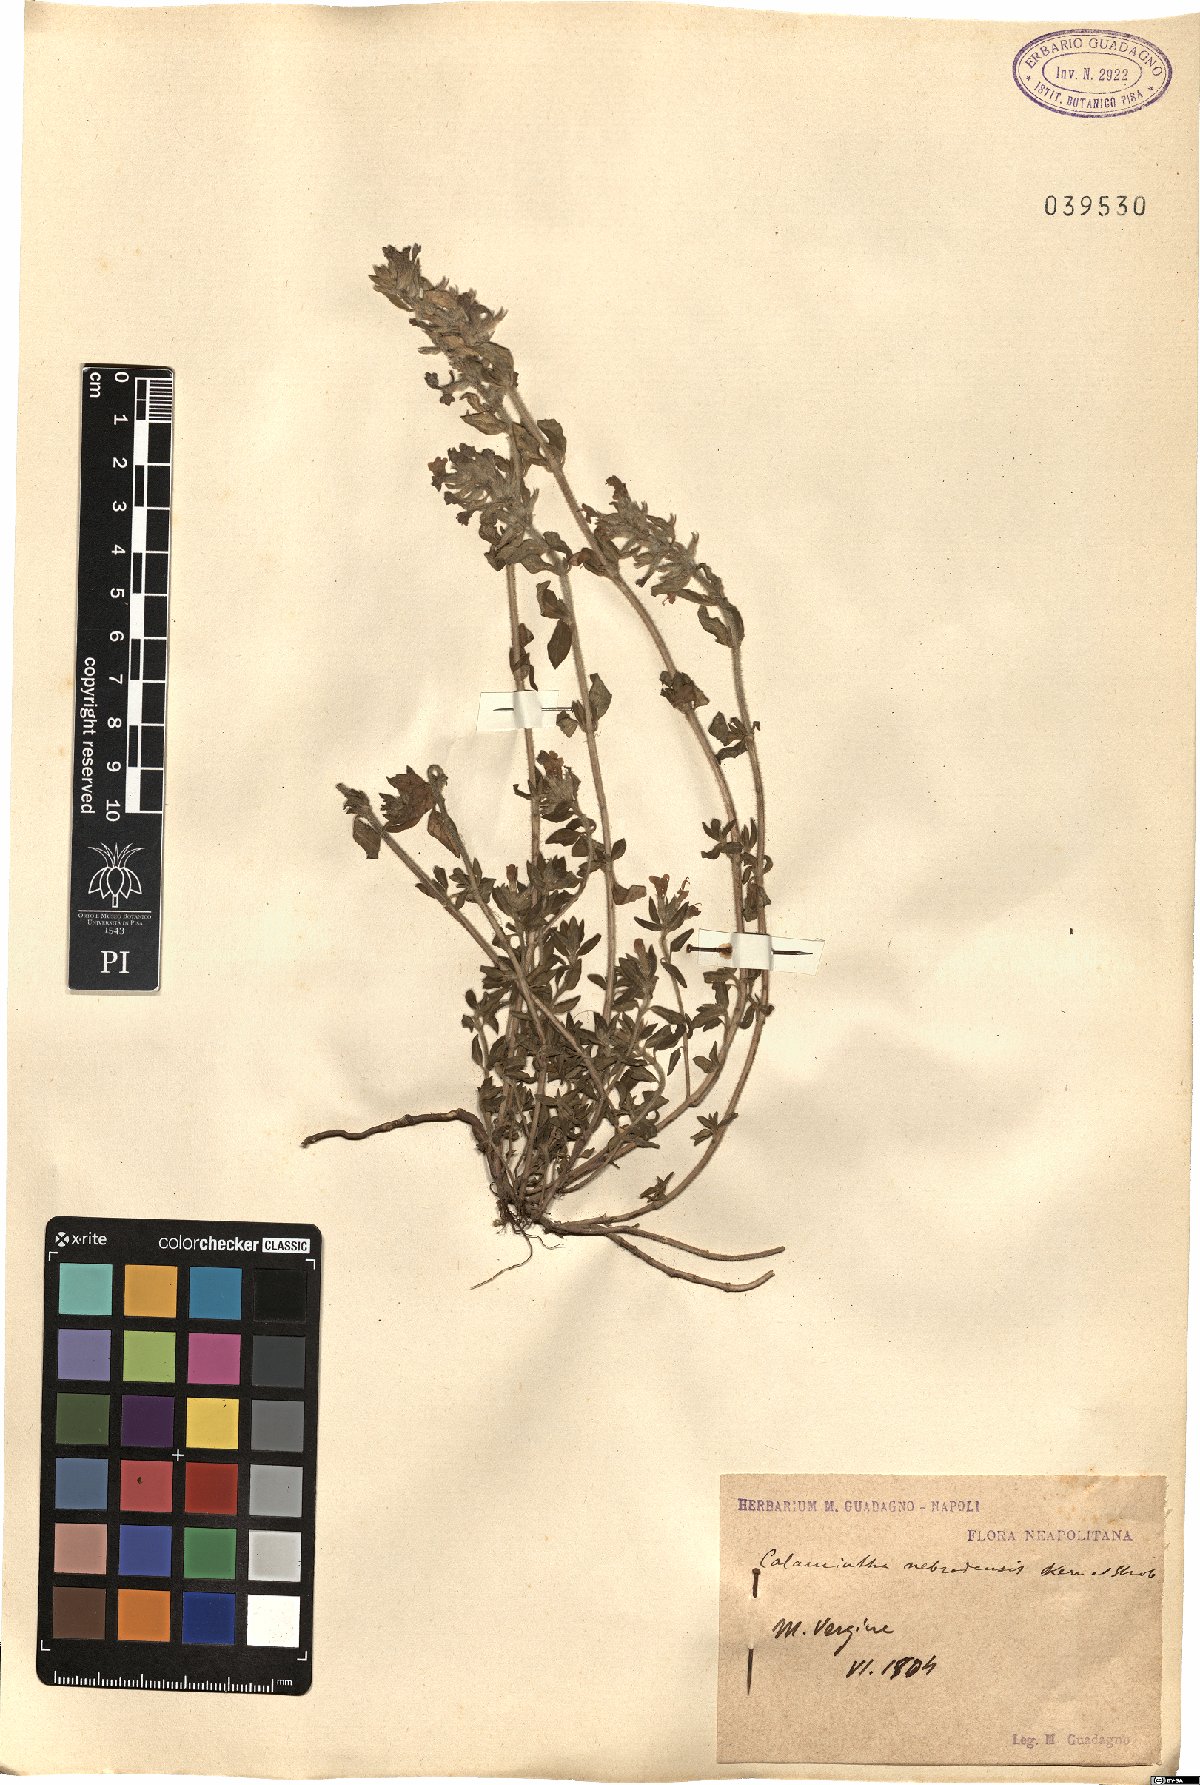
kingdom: Plantae
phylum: Tracheophyta
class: Magnoliopsida
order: Lamiales
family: Lamiaceae
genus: Clinopodium
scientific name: Clinopodium alpinum
